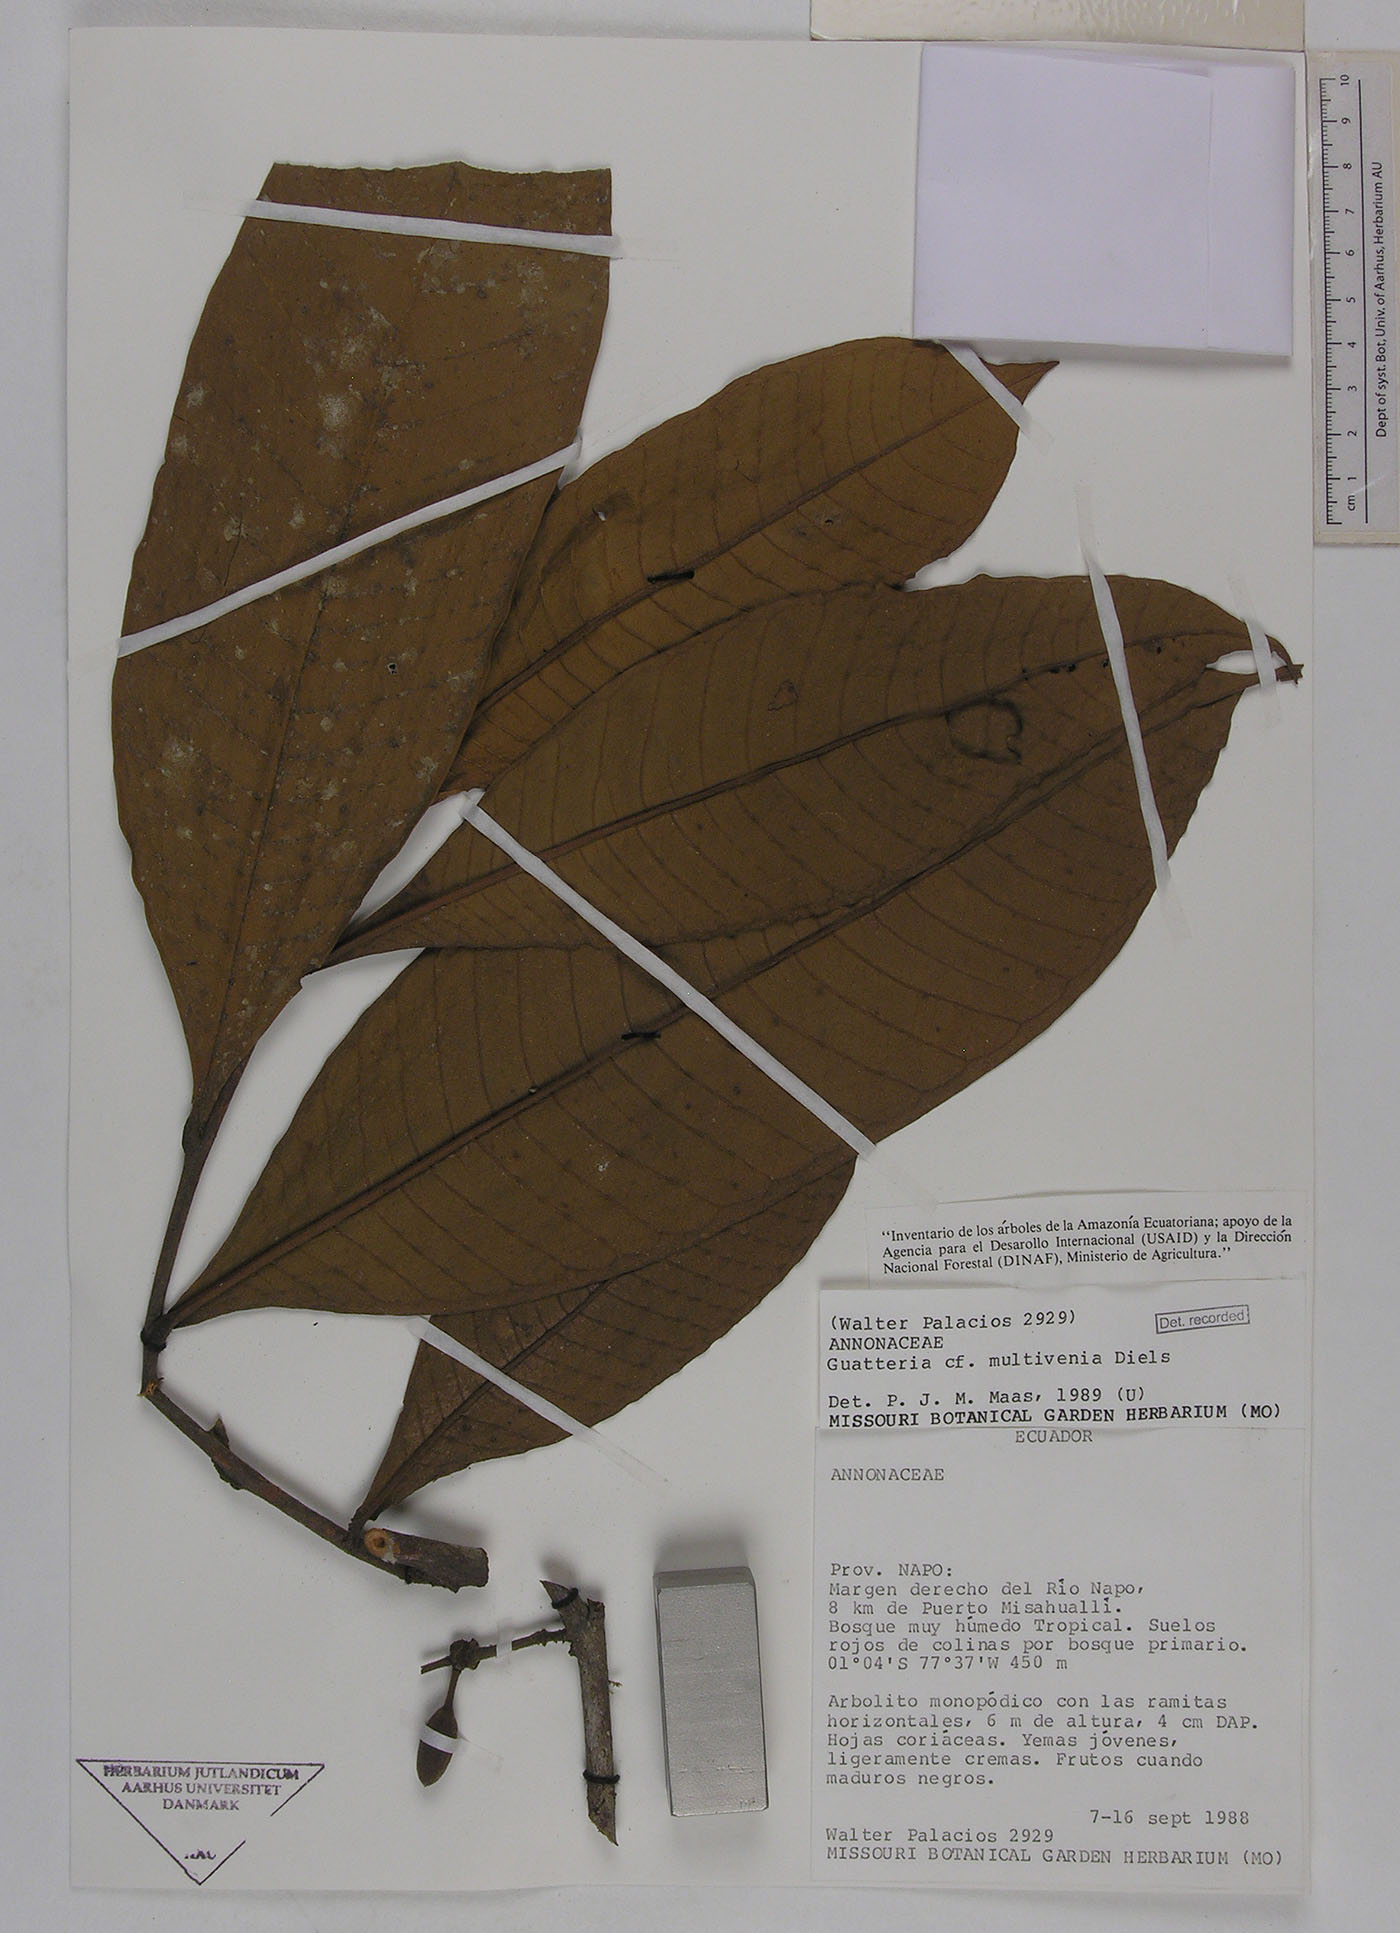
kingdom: Plantae
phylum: Tracheophyta
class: Magnoliopsida
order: Magnoliales
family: Annonaceae
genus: Guatteria
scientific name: Guatteria decurrens
